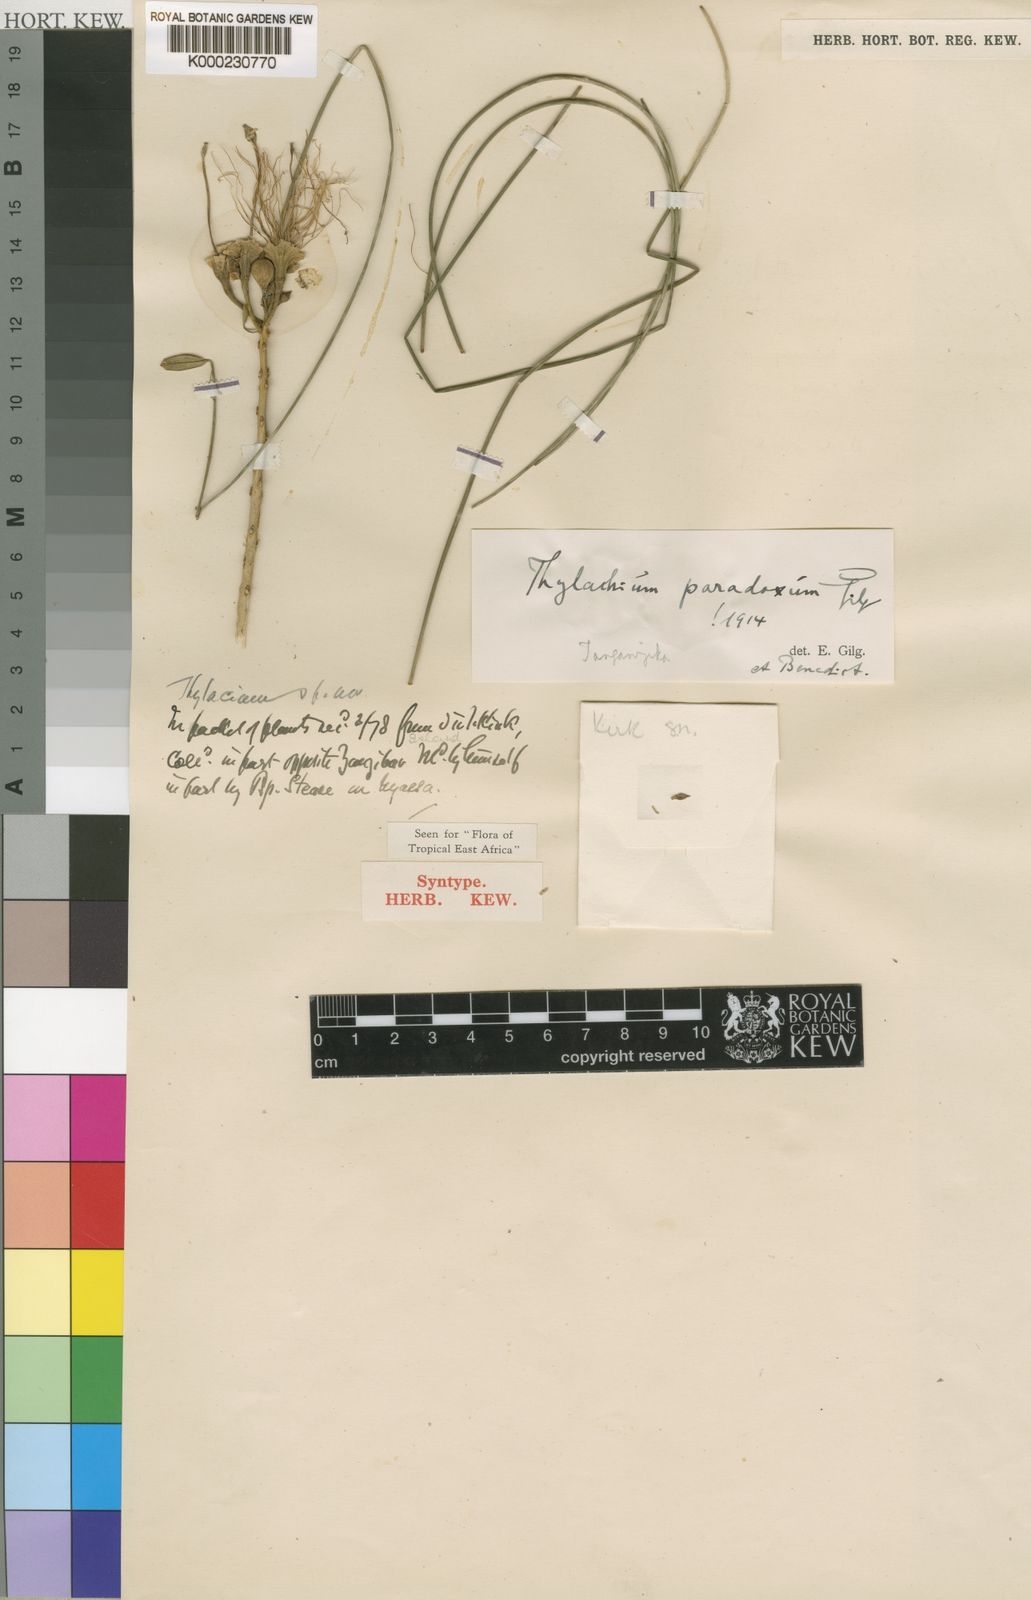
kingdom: Plantae
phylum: Tracheophyta
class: Magnoliopsida
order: Brassicales
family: Capparaceae
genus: Thilachium
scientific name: Thilachium paradoxum
